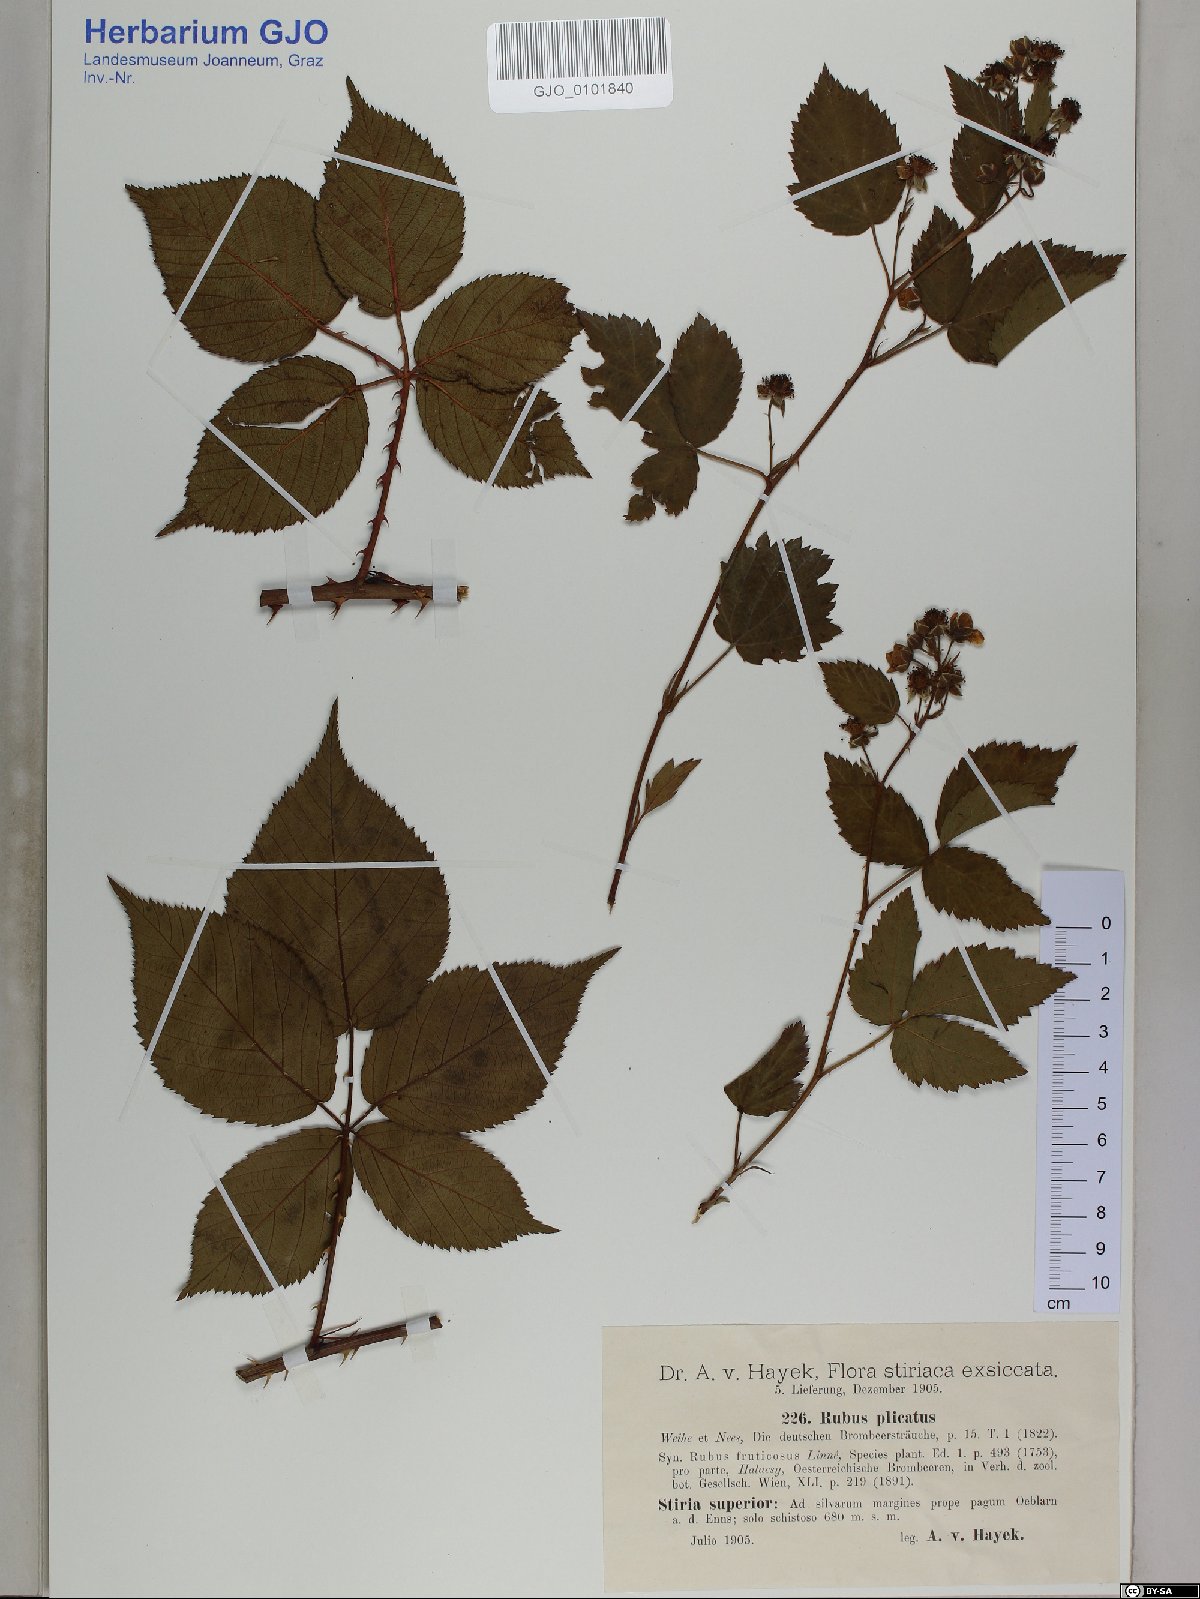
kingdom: Plantae
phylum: Tracheophyta
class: Magnoliopsida
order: Rosales
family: Rosaceae
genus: Rubus
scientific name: Rubus plicatus
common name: Plaited-leaved bramble
